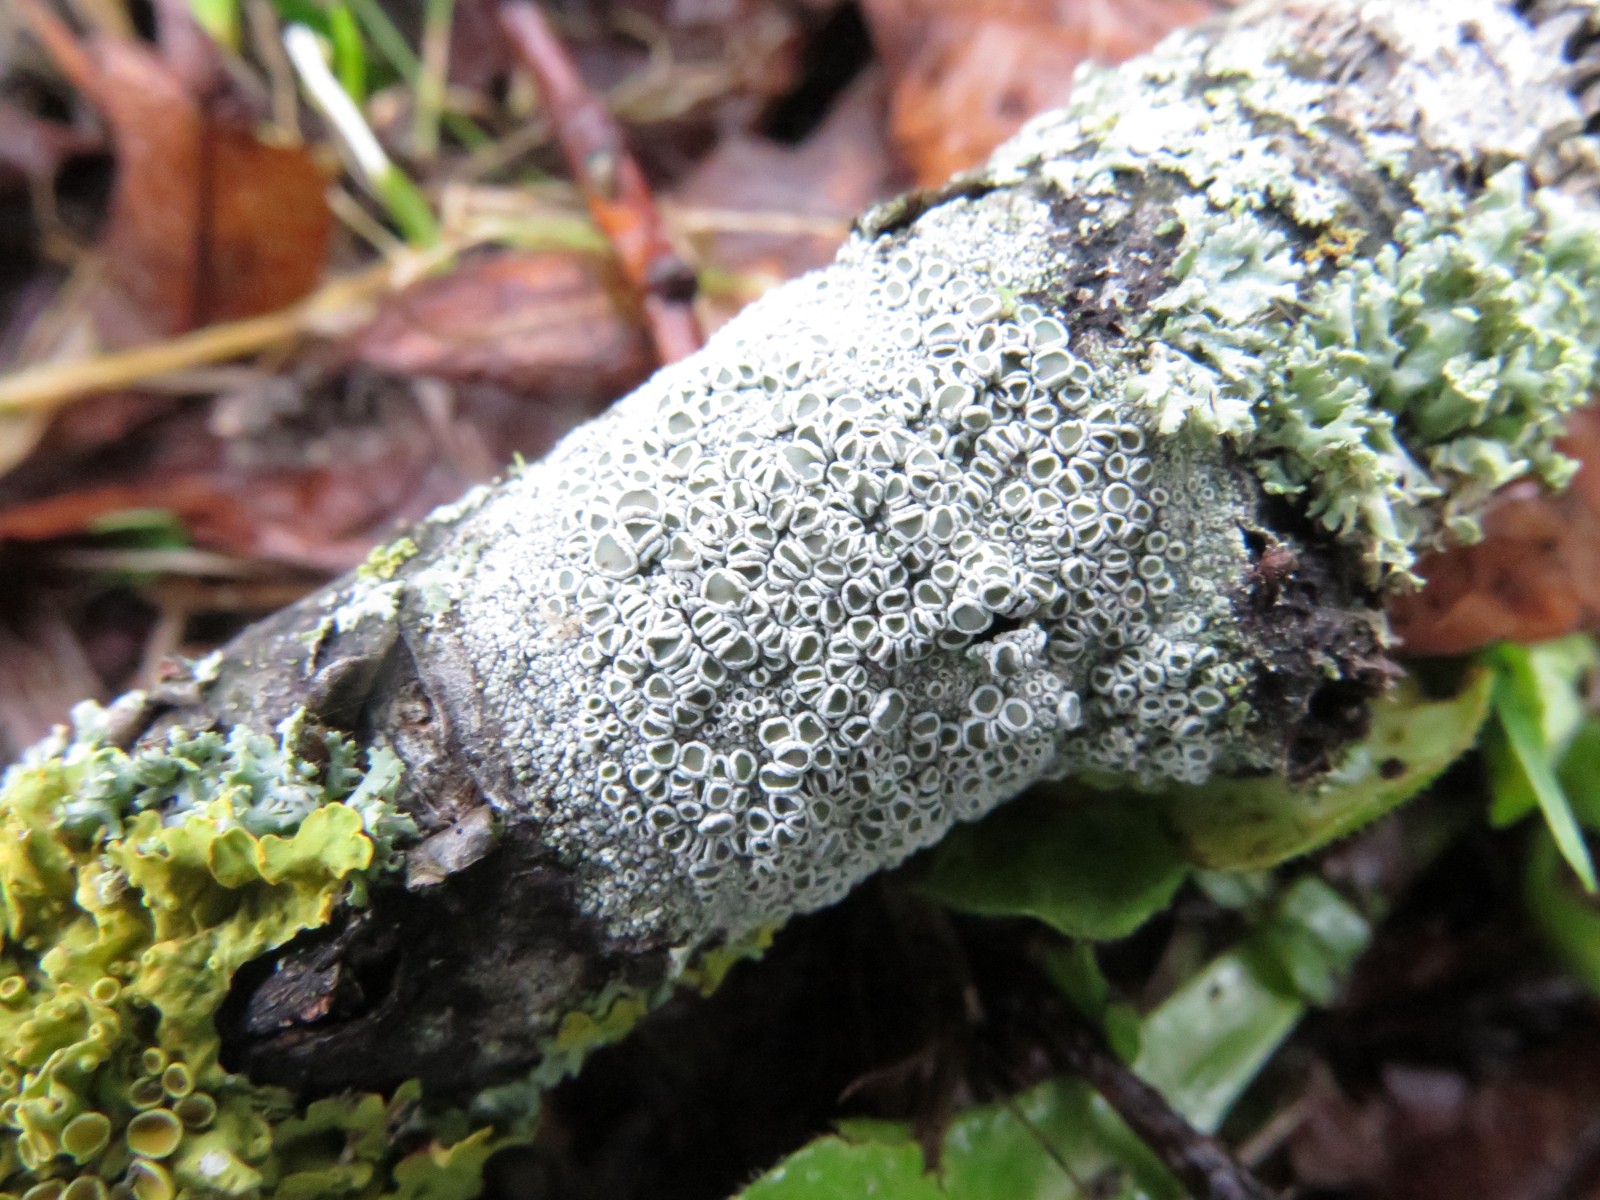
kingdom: Fungi
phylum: Ascomycota
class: Lecanoromycetes
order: Lecanorales
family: Lecanoraceae
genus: Lecanora
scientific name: Lecanora chlarotera
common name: brun kantskivelav
